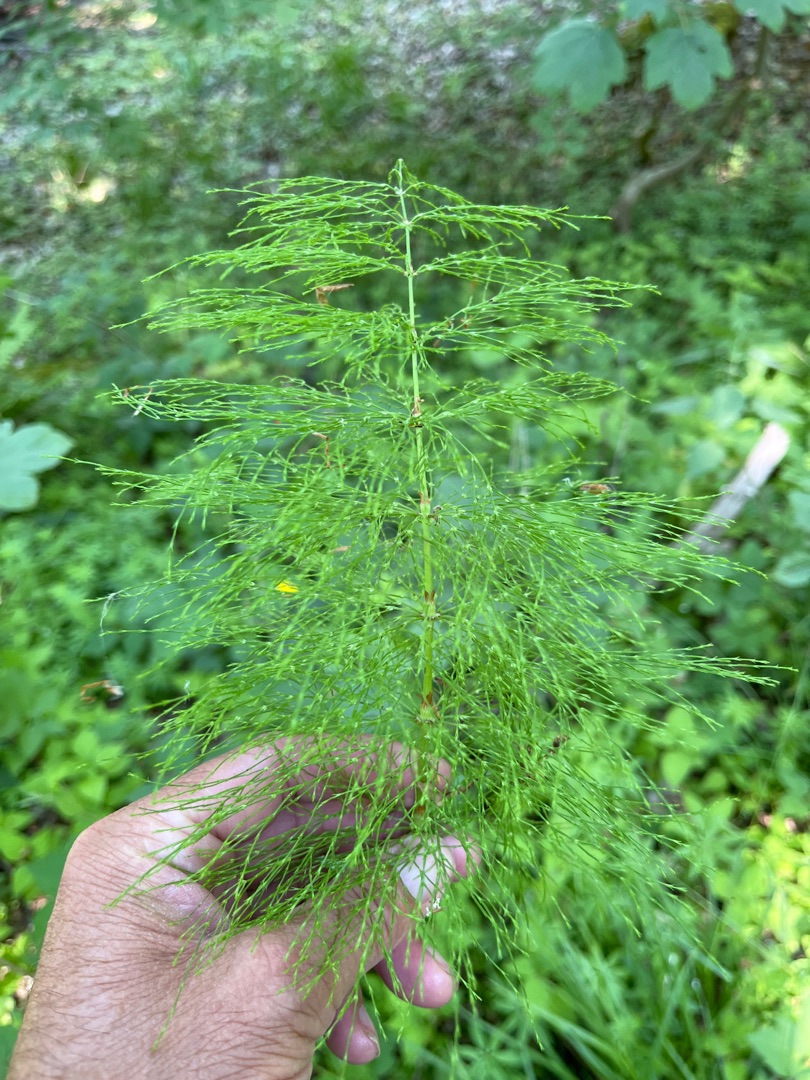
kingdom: Plantae
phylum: Tracheophyta
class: Polypodiopsida
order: Equisetales
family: Equisetaceae
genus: Equisetum
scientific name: Equisetum sylvaticum
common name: Skov-padderok
